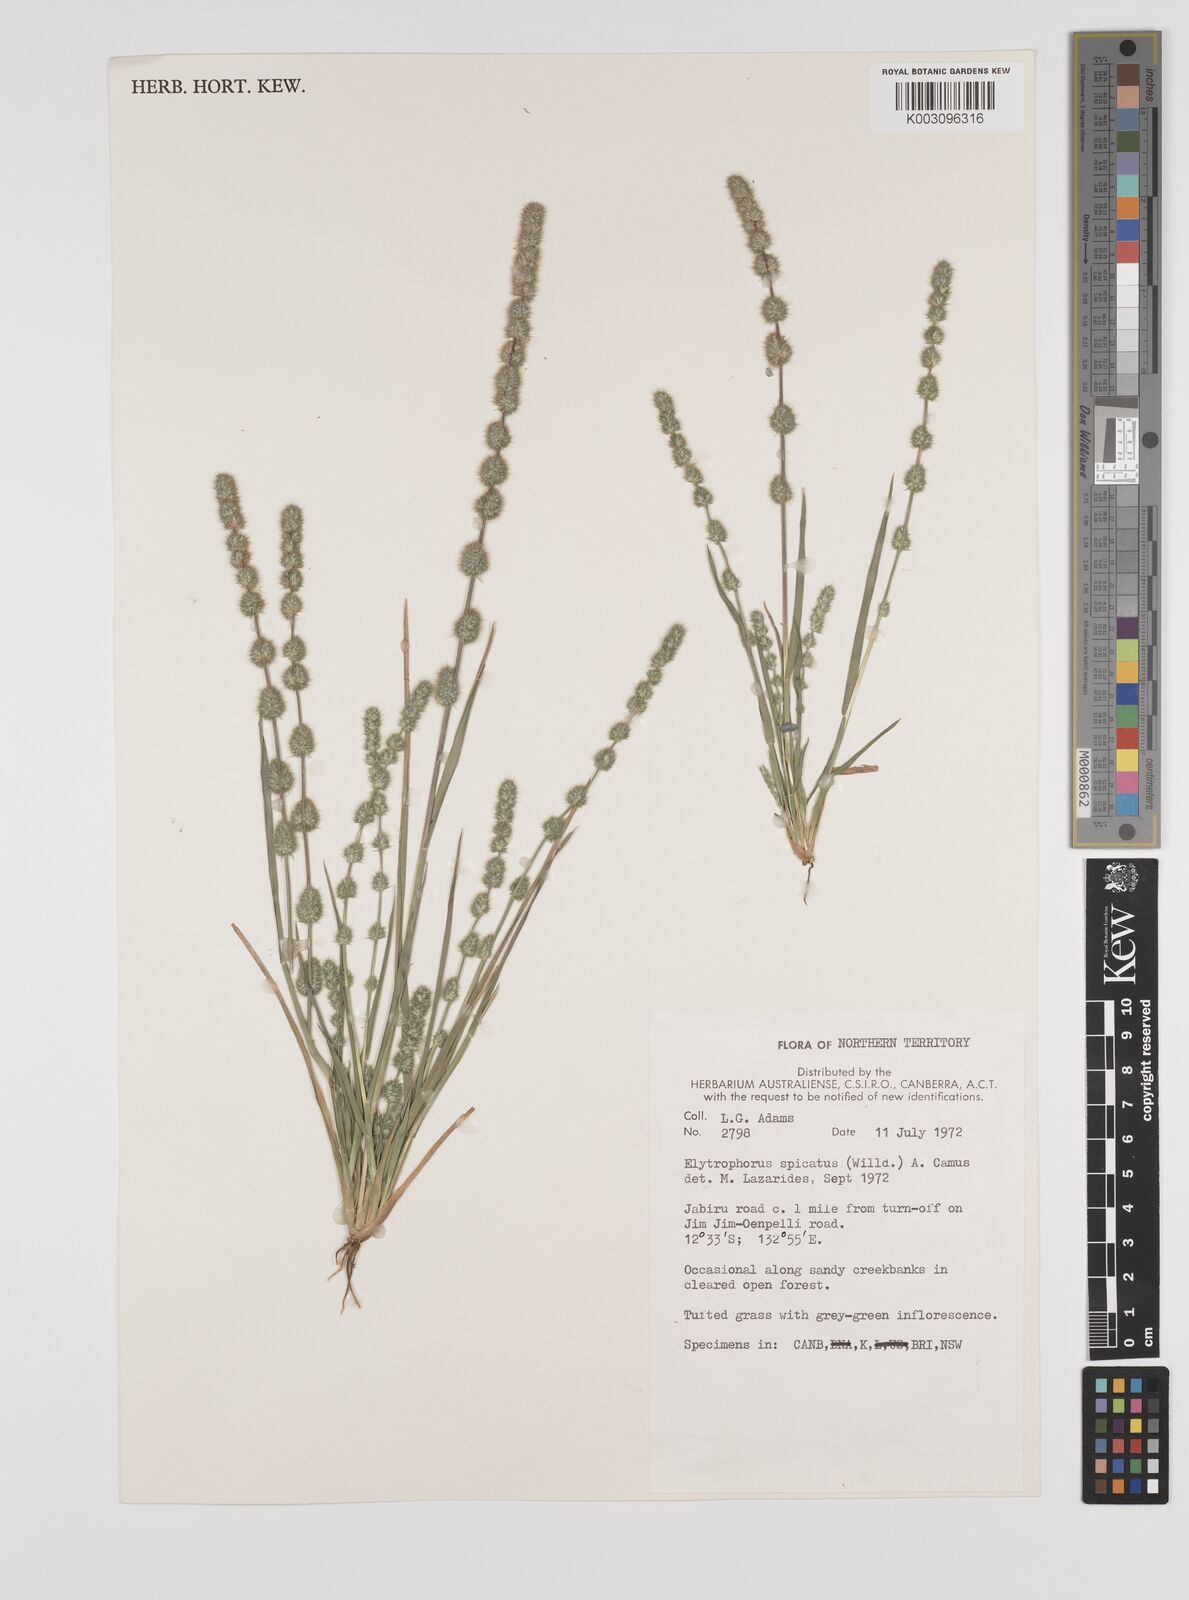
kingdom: Plantae
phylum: Tracheophyta
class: Liliopsida
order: Poales
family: Poaceae
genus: Elytrophorus
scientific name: Elytrophorus spicatus
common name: Spike grass
